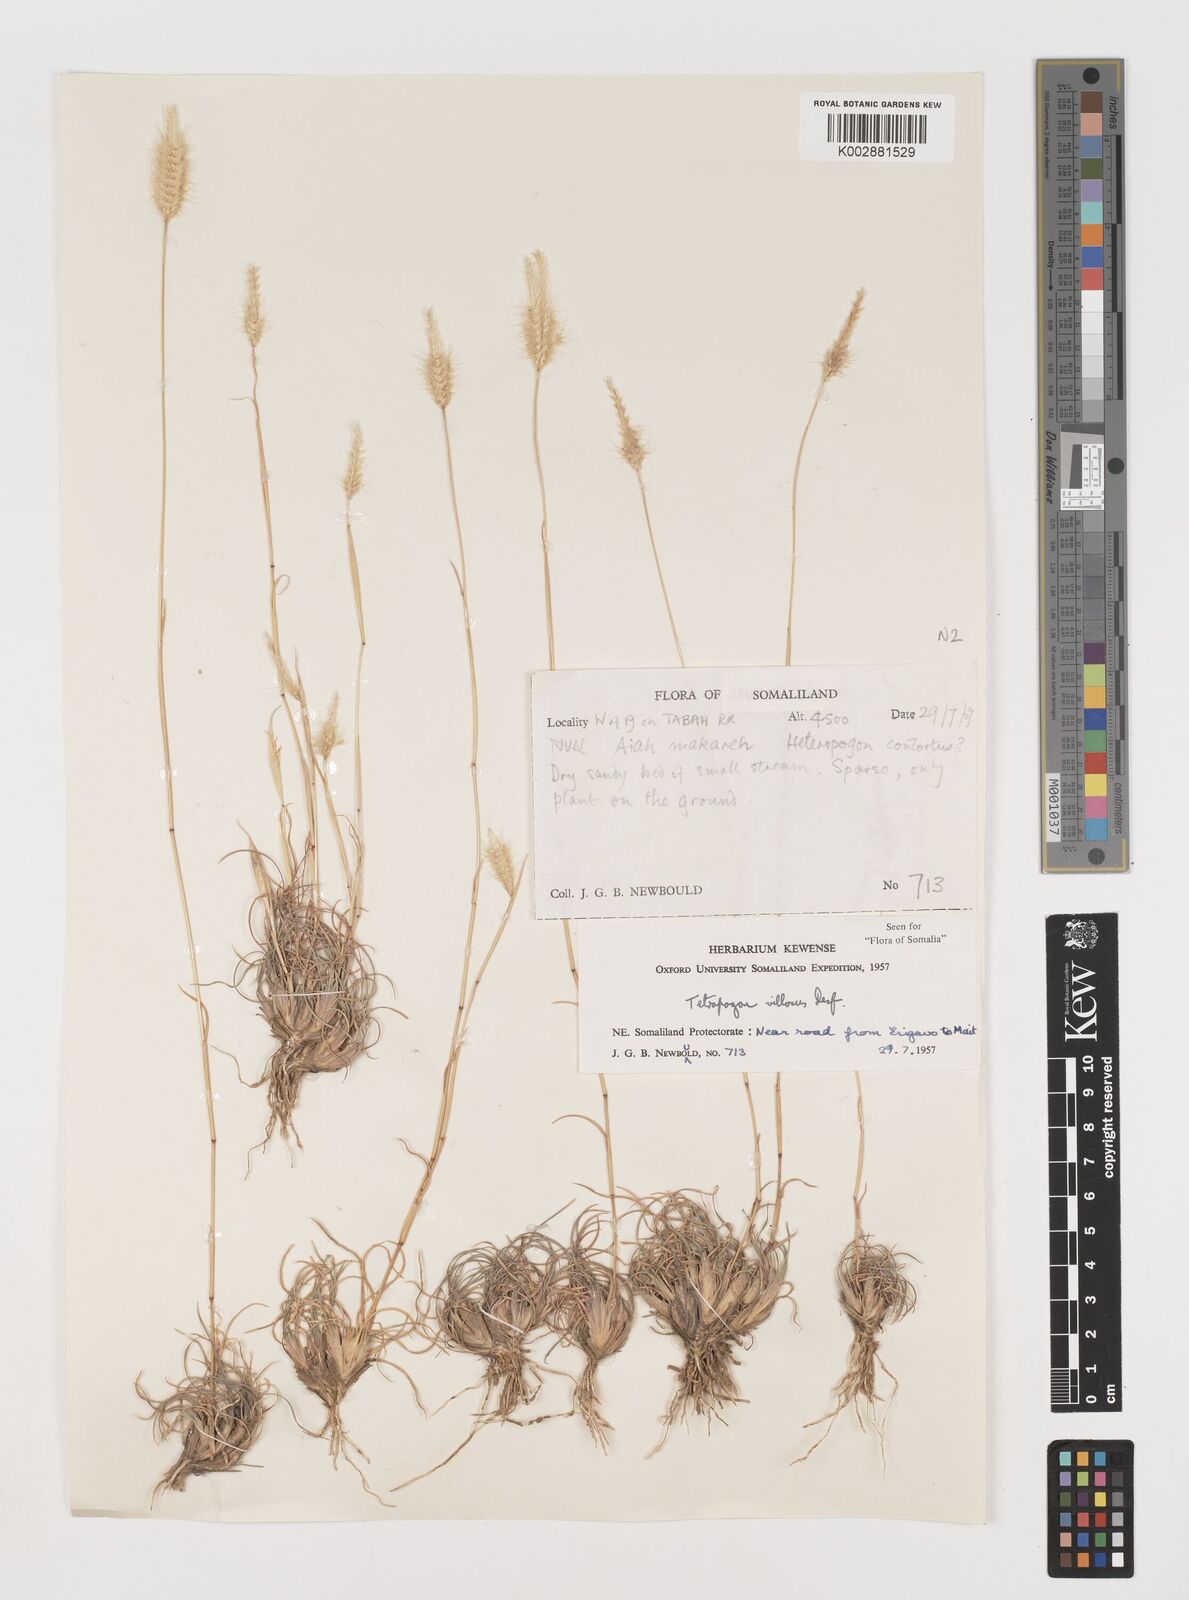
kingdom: Plantae
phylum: Tracheophyta
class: Liliopsida
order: Poales
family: Poaceae
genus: Tetrapogon
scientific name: Tetrapogon villosus
